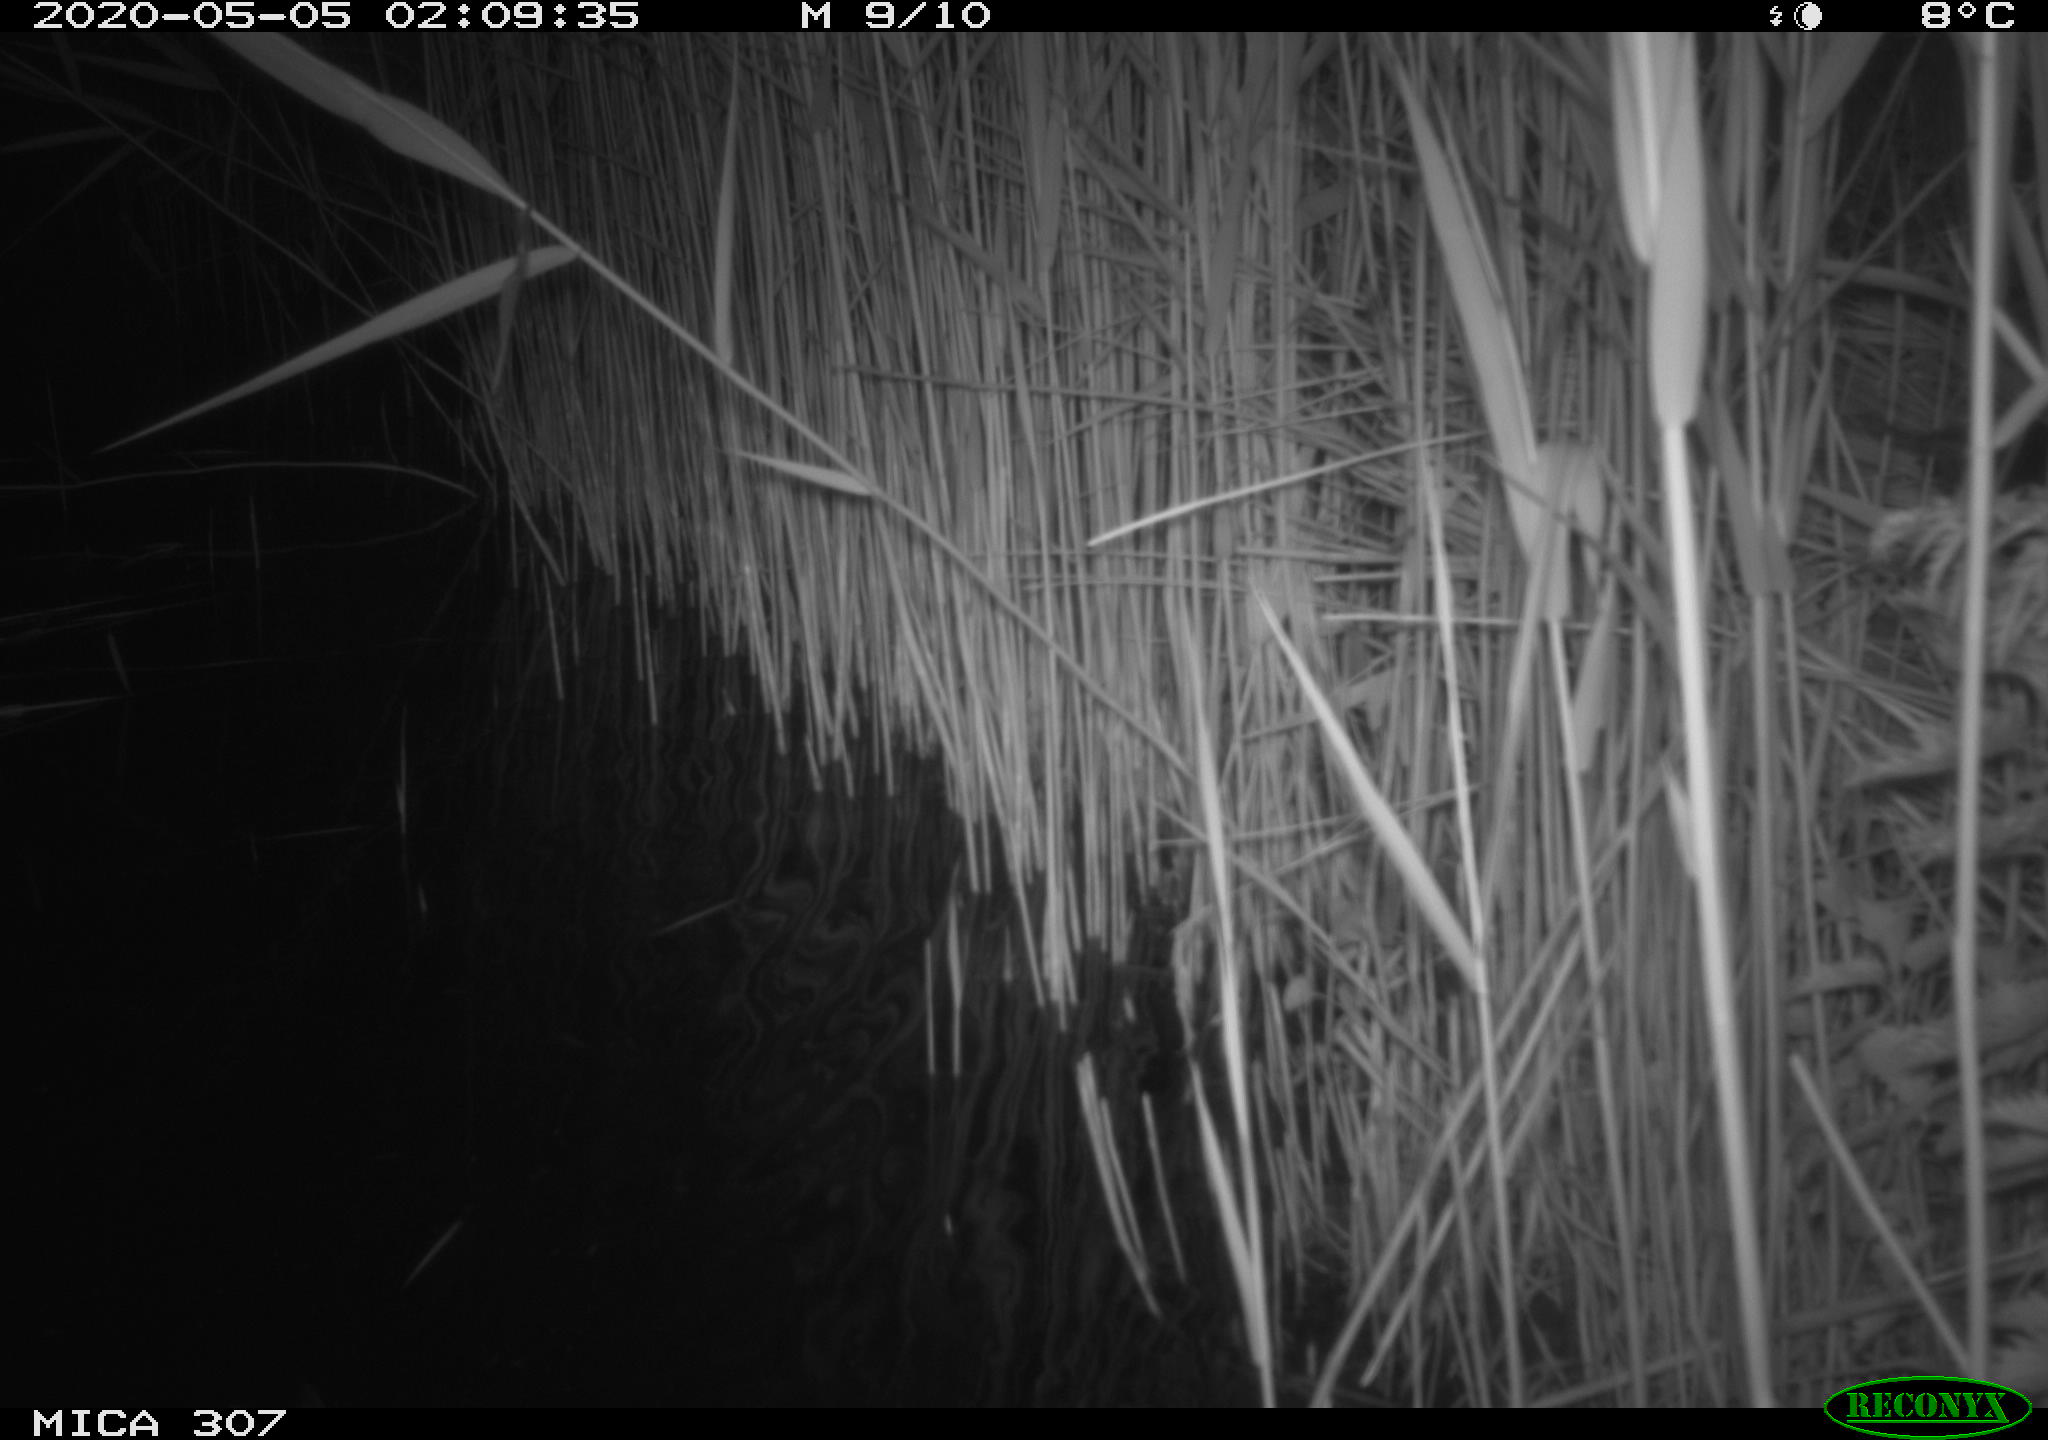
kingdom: Animalia
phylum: Chordata
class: Aves
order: Anseriformes
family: Anatidae
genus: Anas
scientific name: Anas platyrhynchos
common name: Mallard
